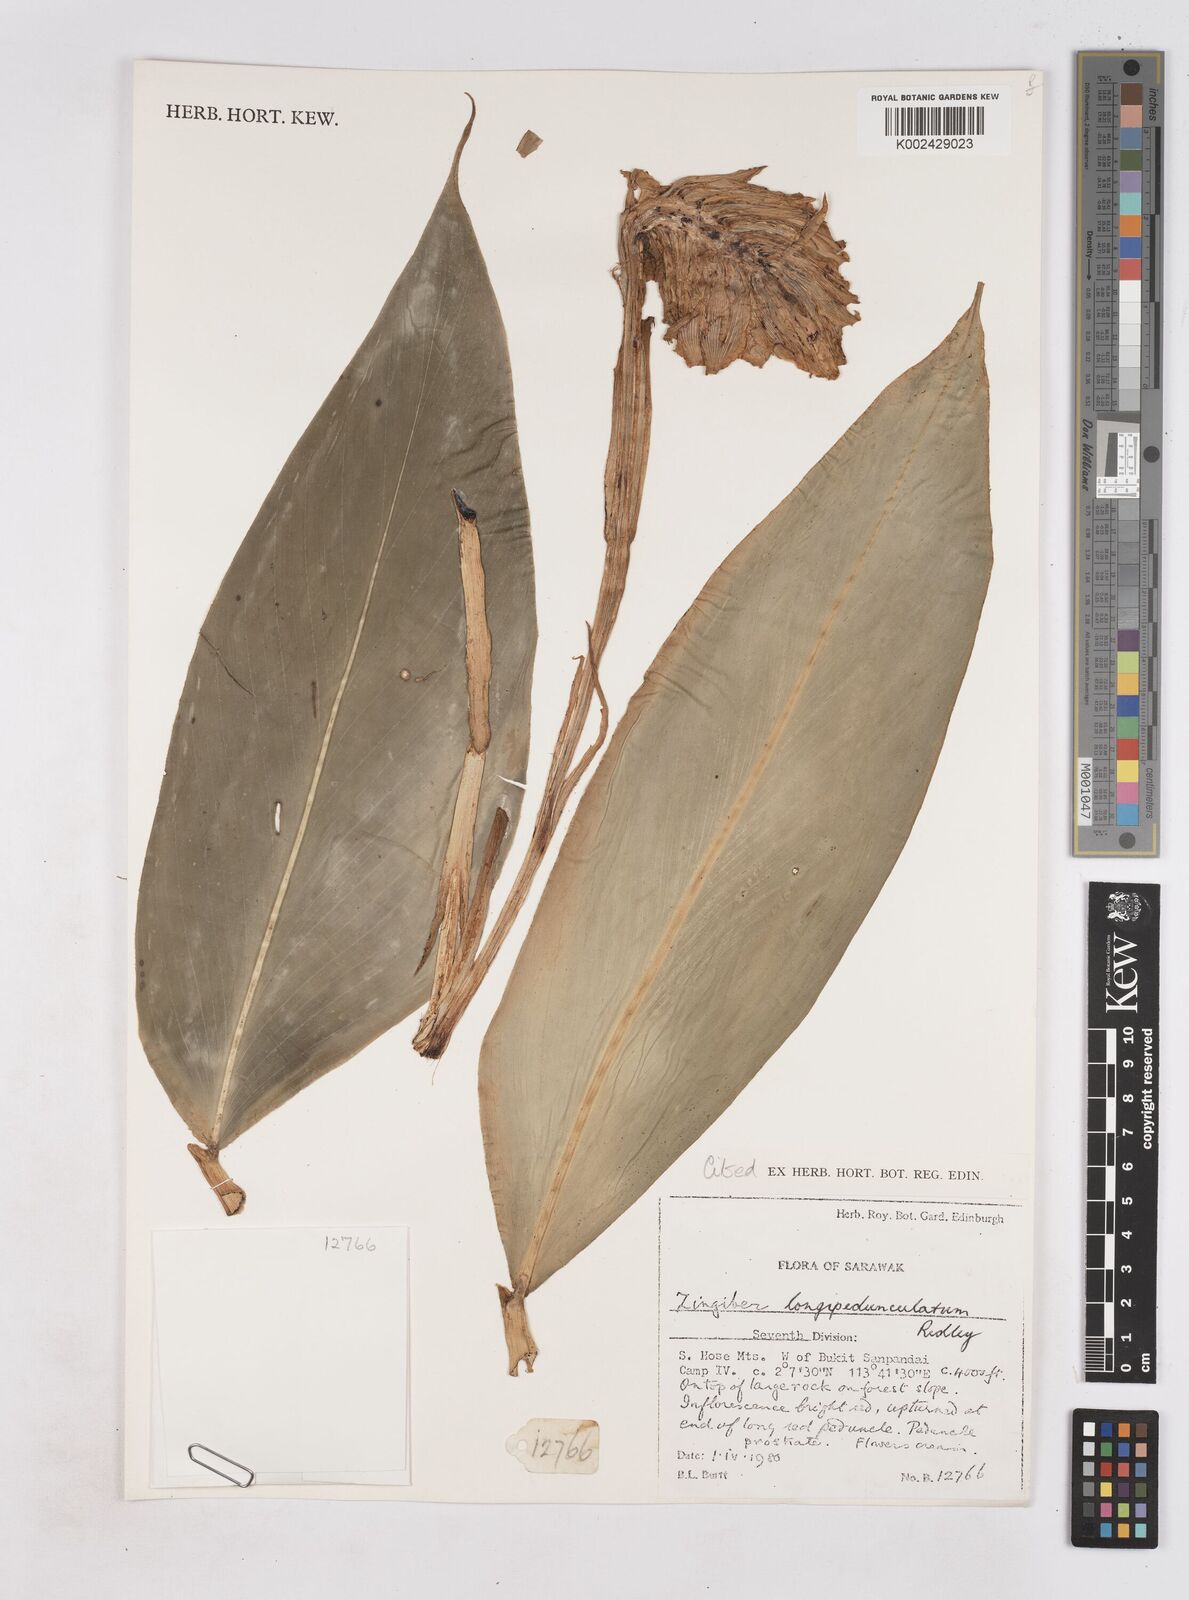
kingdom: Plantae
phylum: Tracheophyta
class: Liliopsida
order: Zingiberales
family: Zingiberaceae
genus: Zingiber
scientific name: Zingiber longipedunculatum
